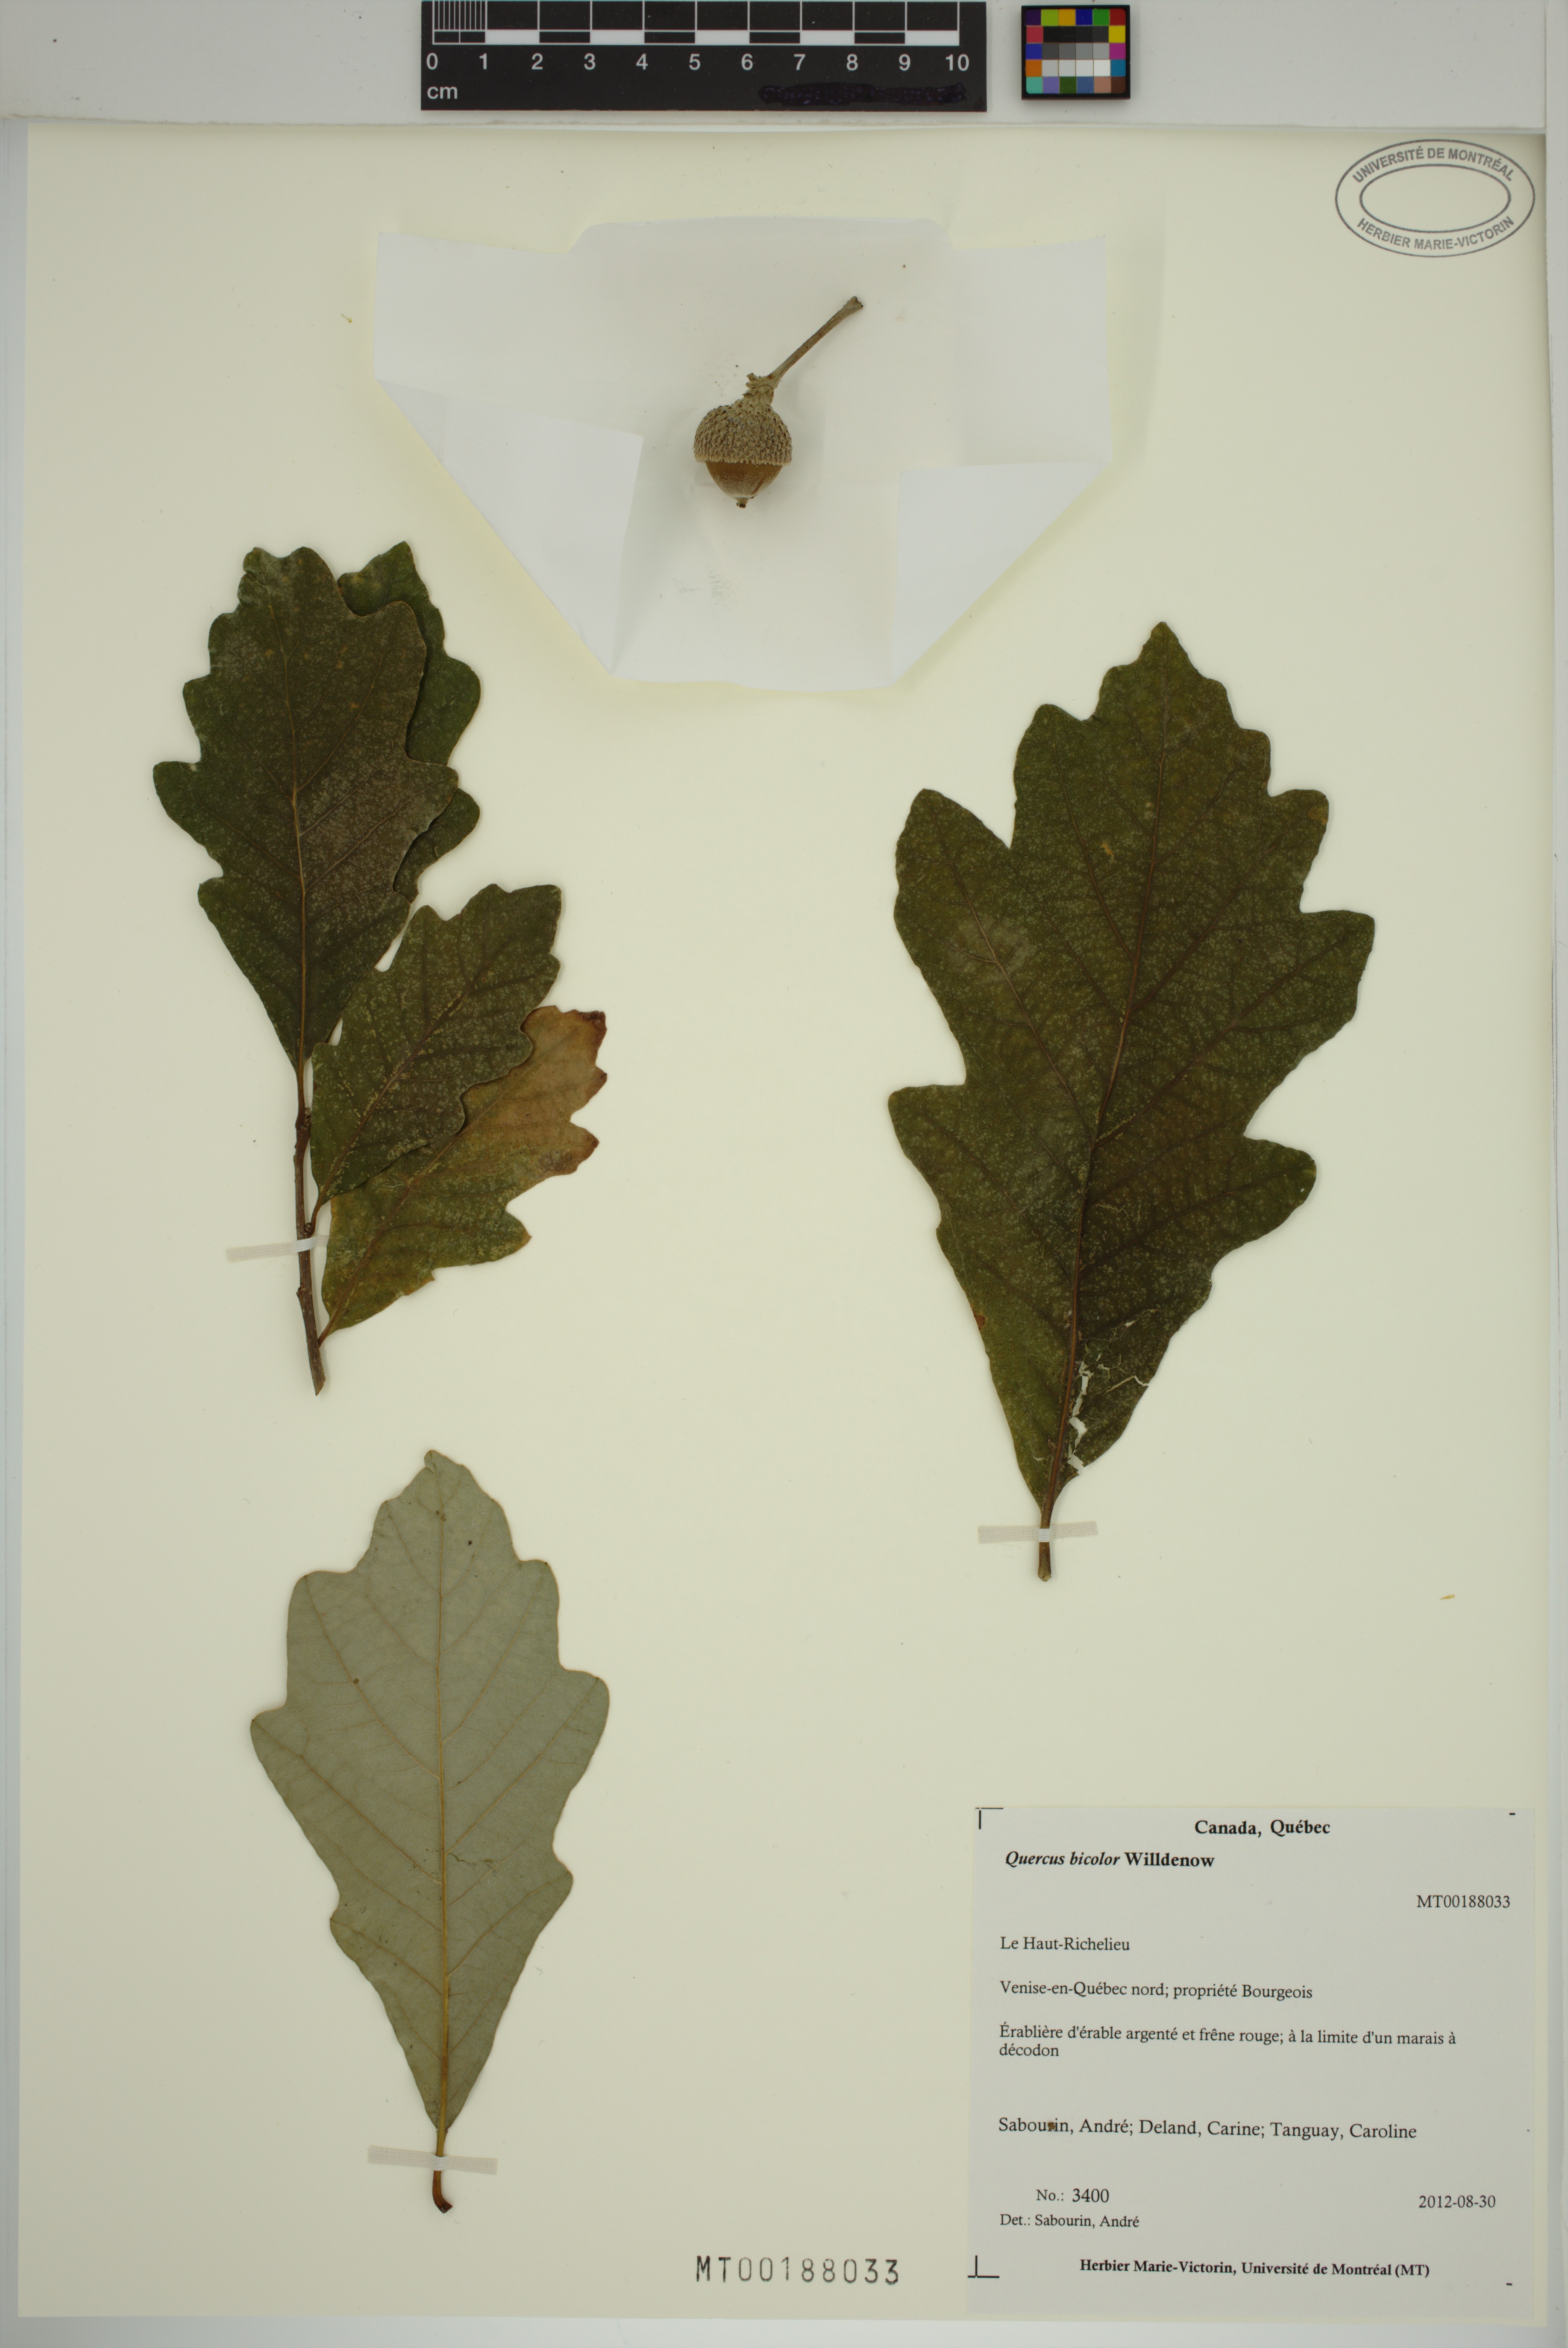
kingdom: Plantae
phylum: Tracheophyta
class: Magnoliopsida
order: Fagales
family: Fagaceae
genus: Quercus
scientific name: Quercus bicolor
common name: Swamp white oak
